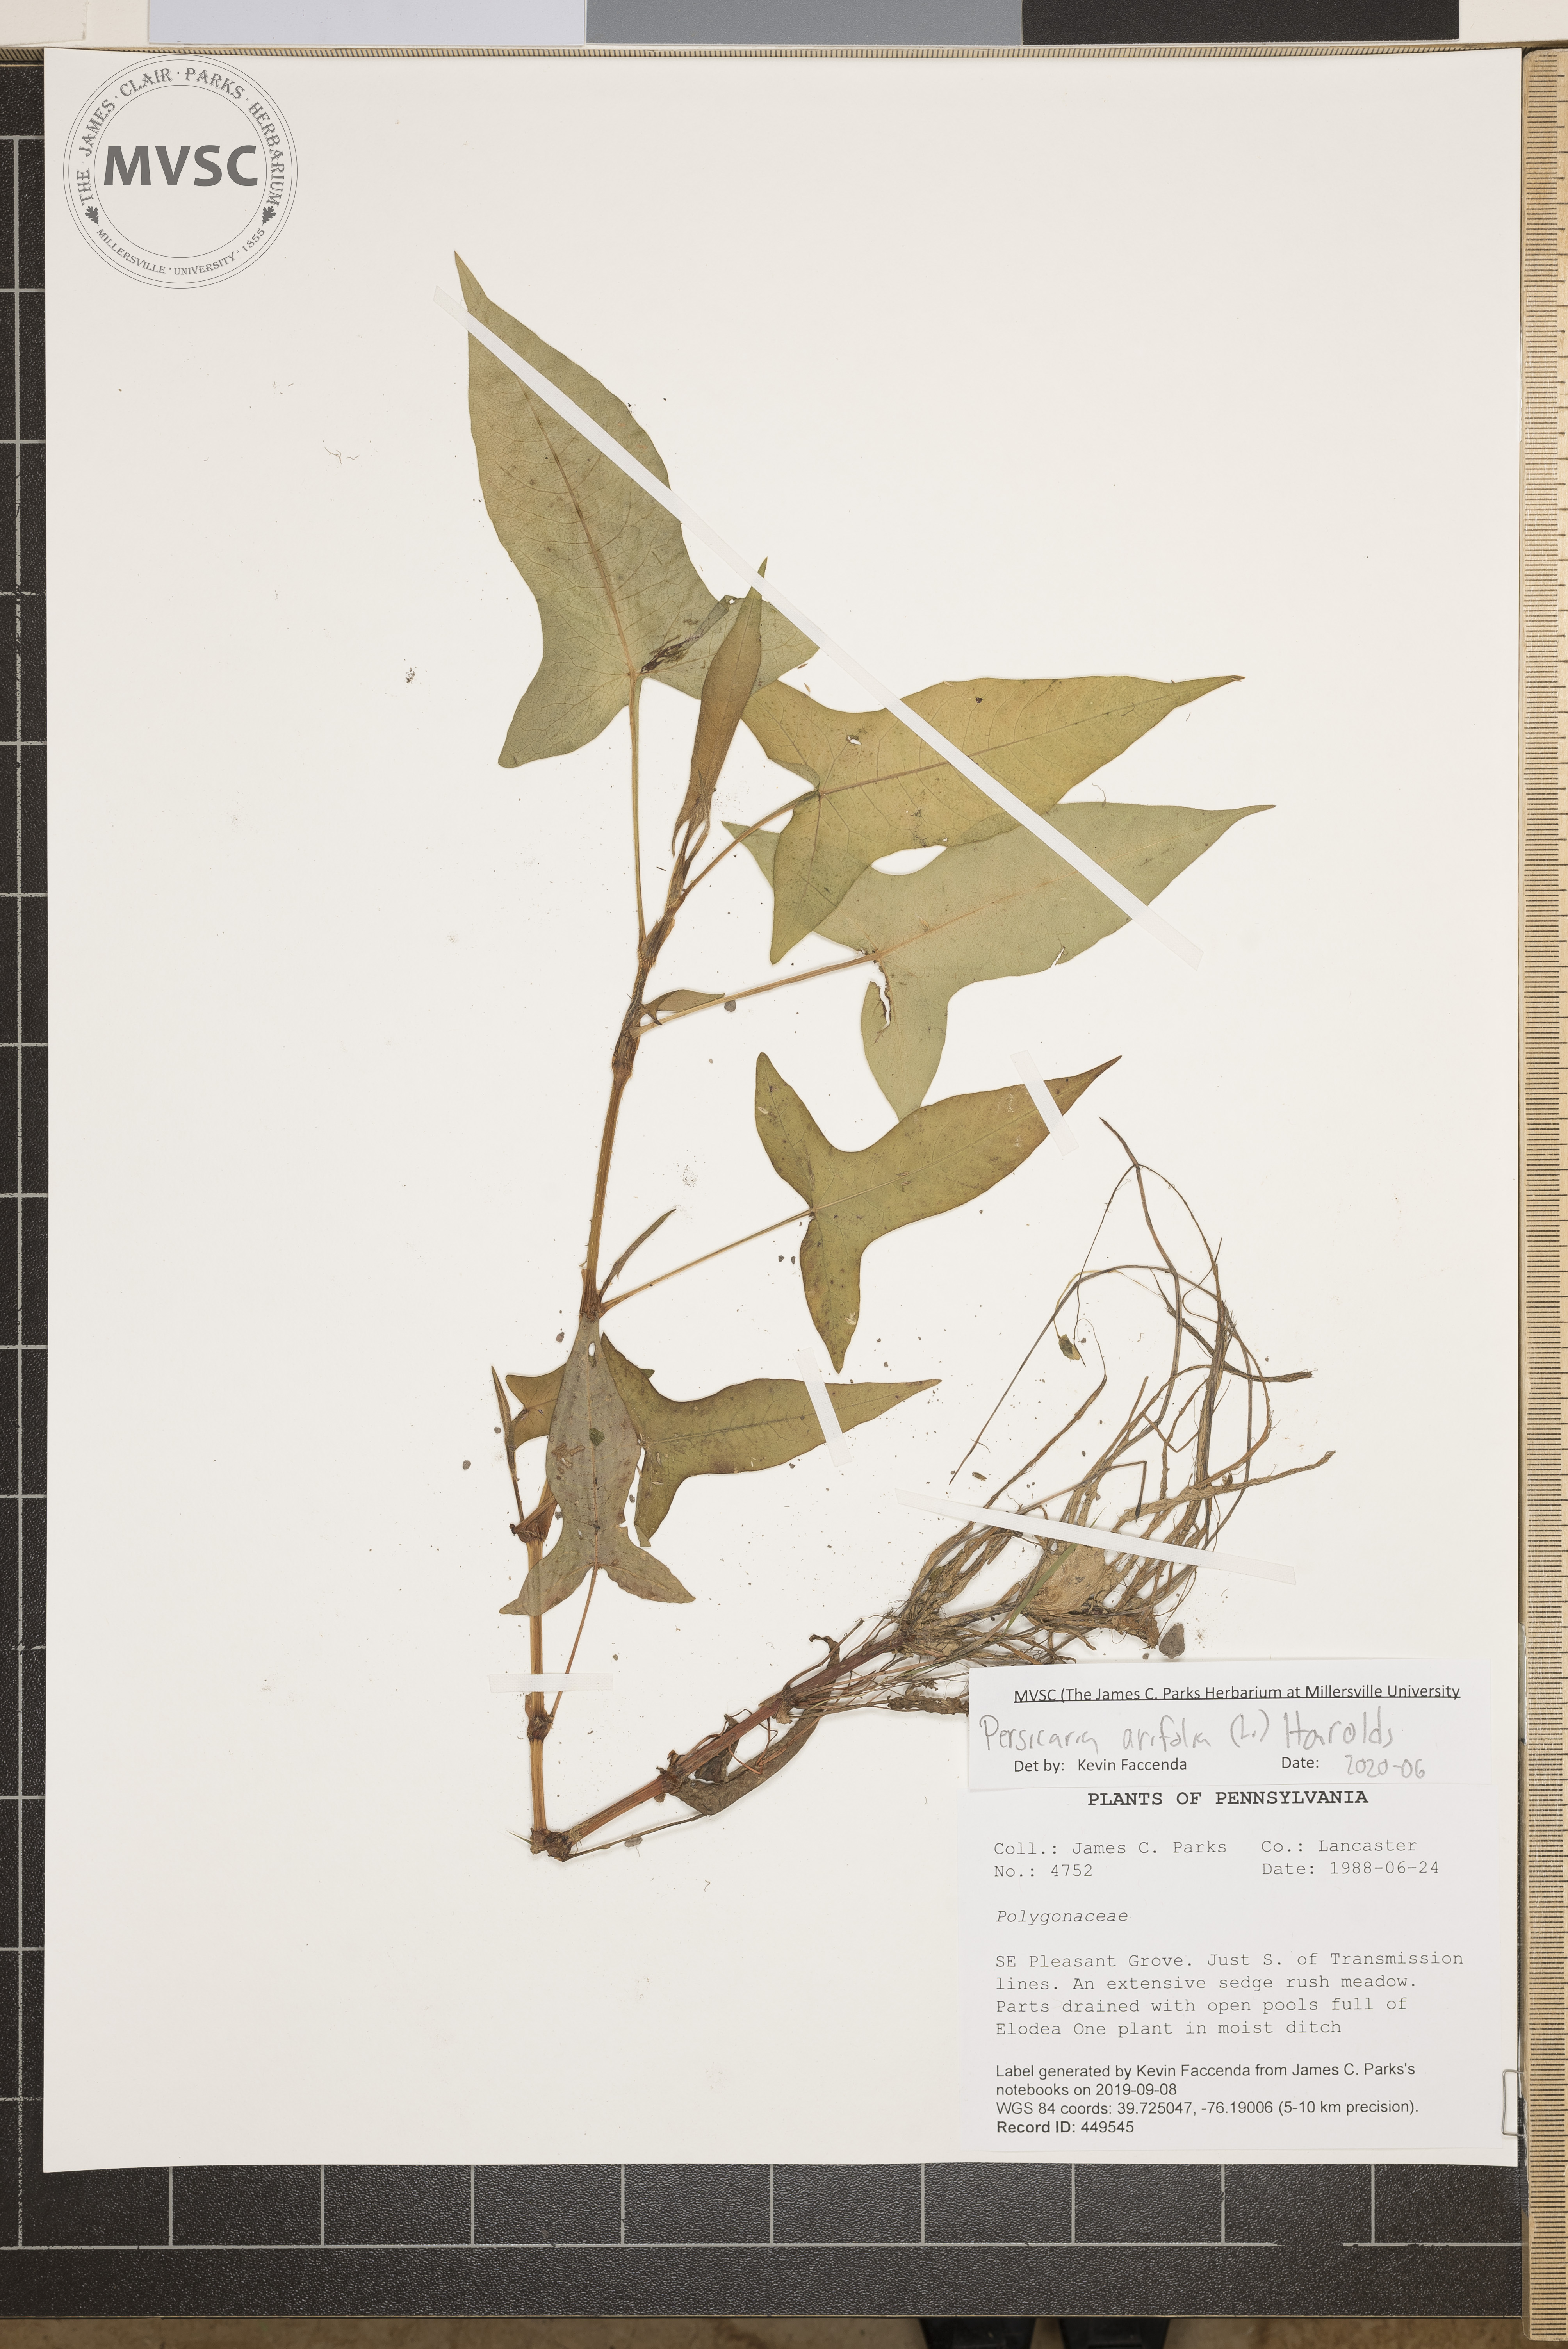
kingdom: Plantae
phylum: Tracheophyta
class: Magnoliopsida
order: Caryophyllales
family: Polygonaceae
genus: Persicaria
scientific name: Persicaria arifolia
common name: Halberd-leaved tear-thumb
